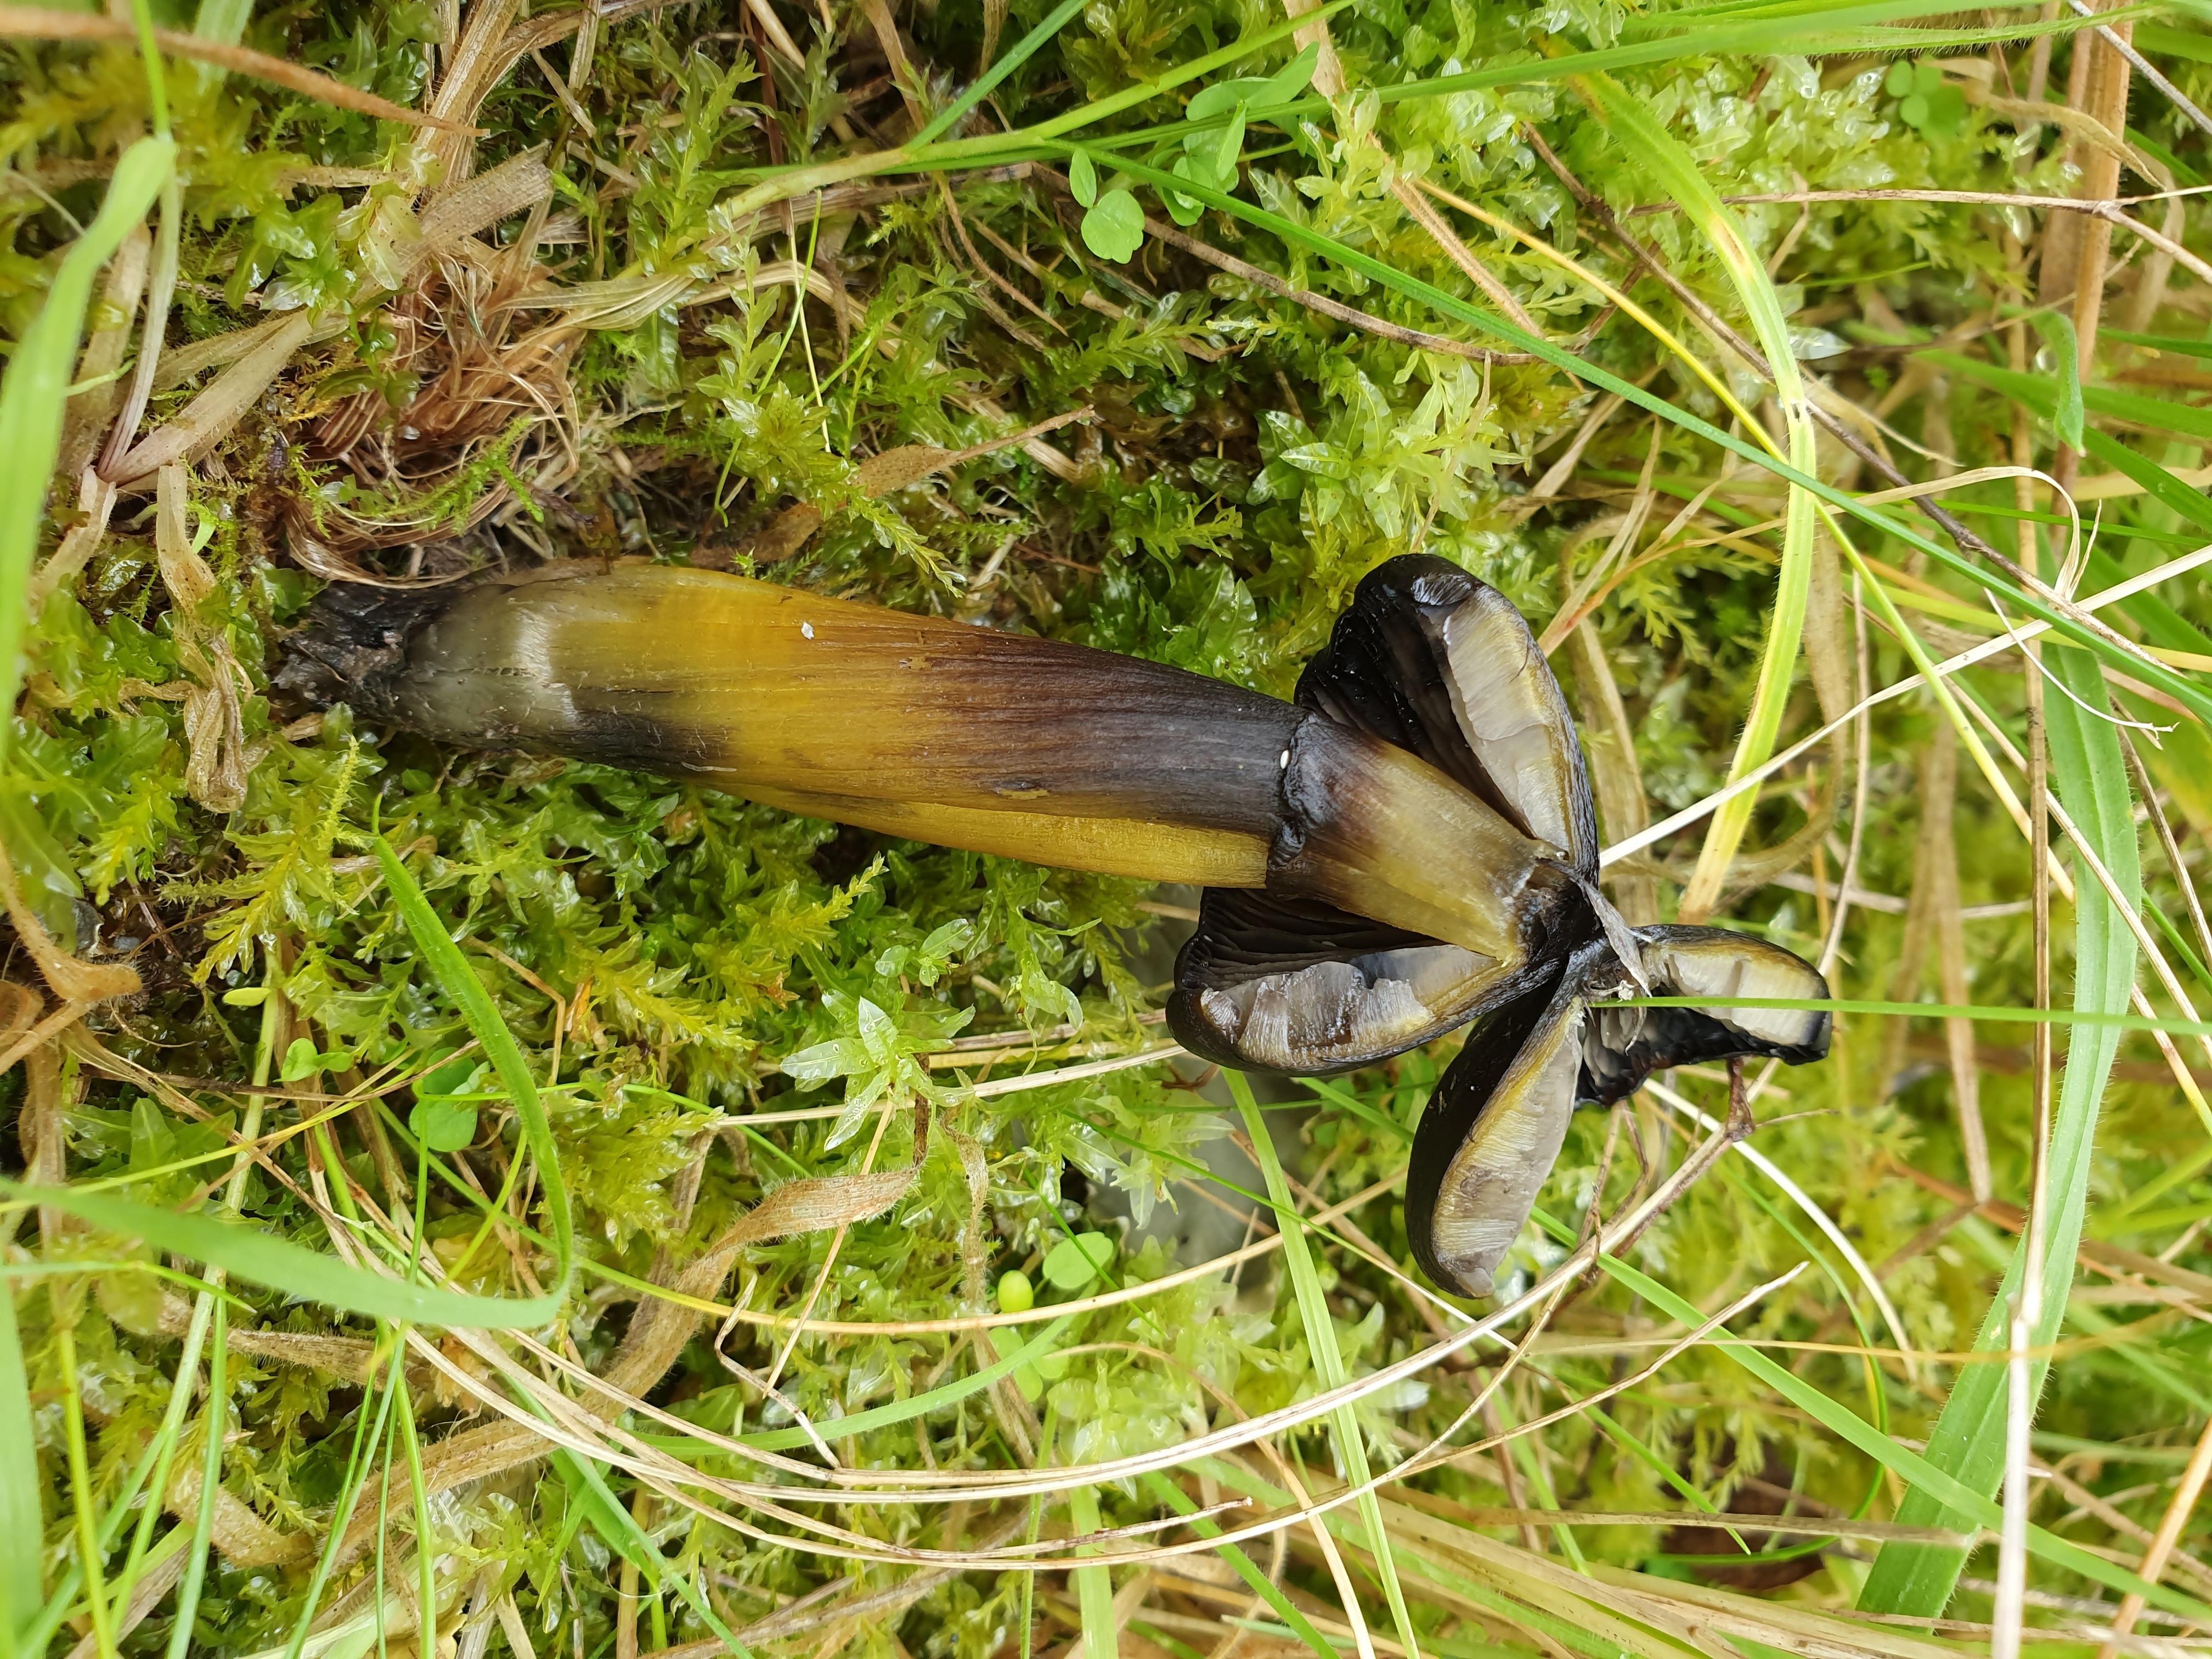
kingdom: Fungi
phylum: Basidiomycota
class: Agaricomycetes
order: Agaricales
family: Hygrophoraceae
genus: Hygrocybe
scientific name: Hygrocybe conica
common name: kegle-vokshat
